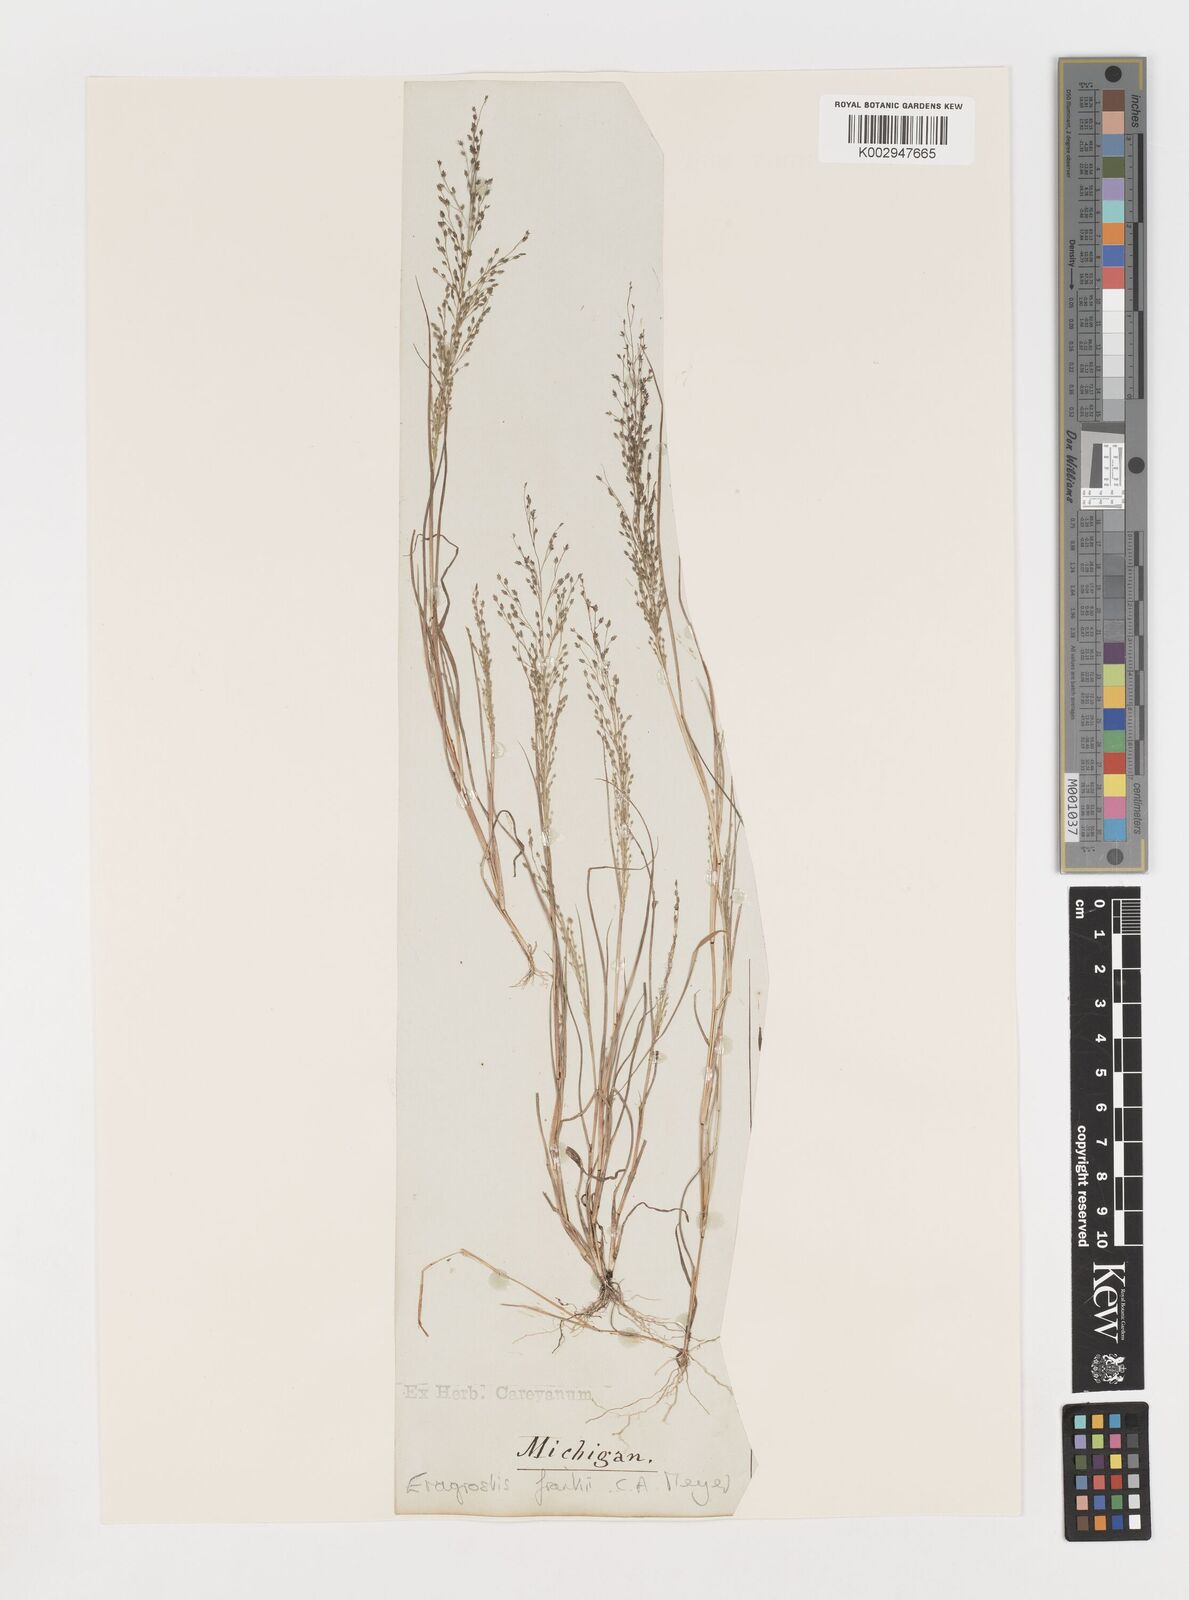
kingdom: Plantae
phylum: Tracheophyta
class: Liliopsida
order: Poales
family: Poaceae
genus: Eragrostis
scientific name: Eragrostis frankii
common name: Frank's lovegrass
